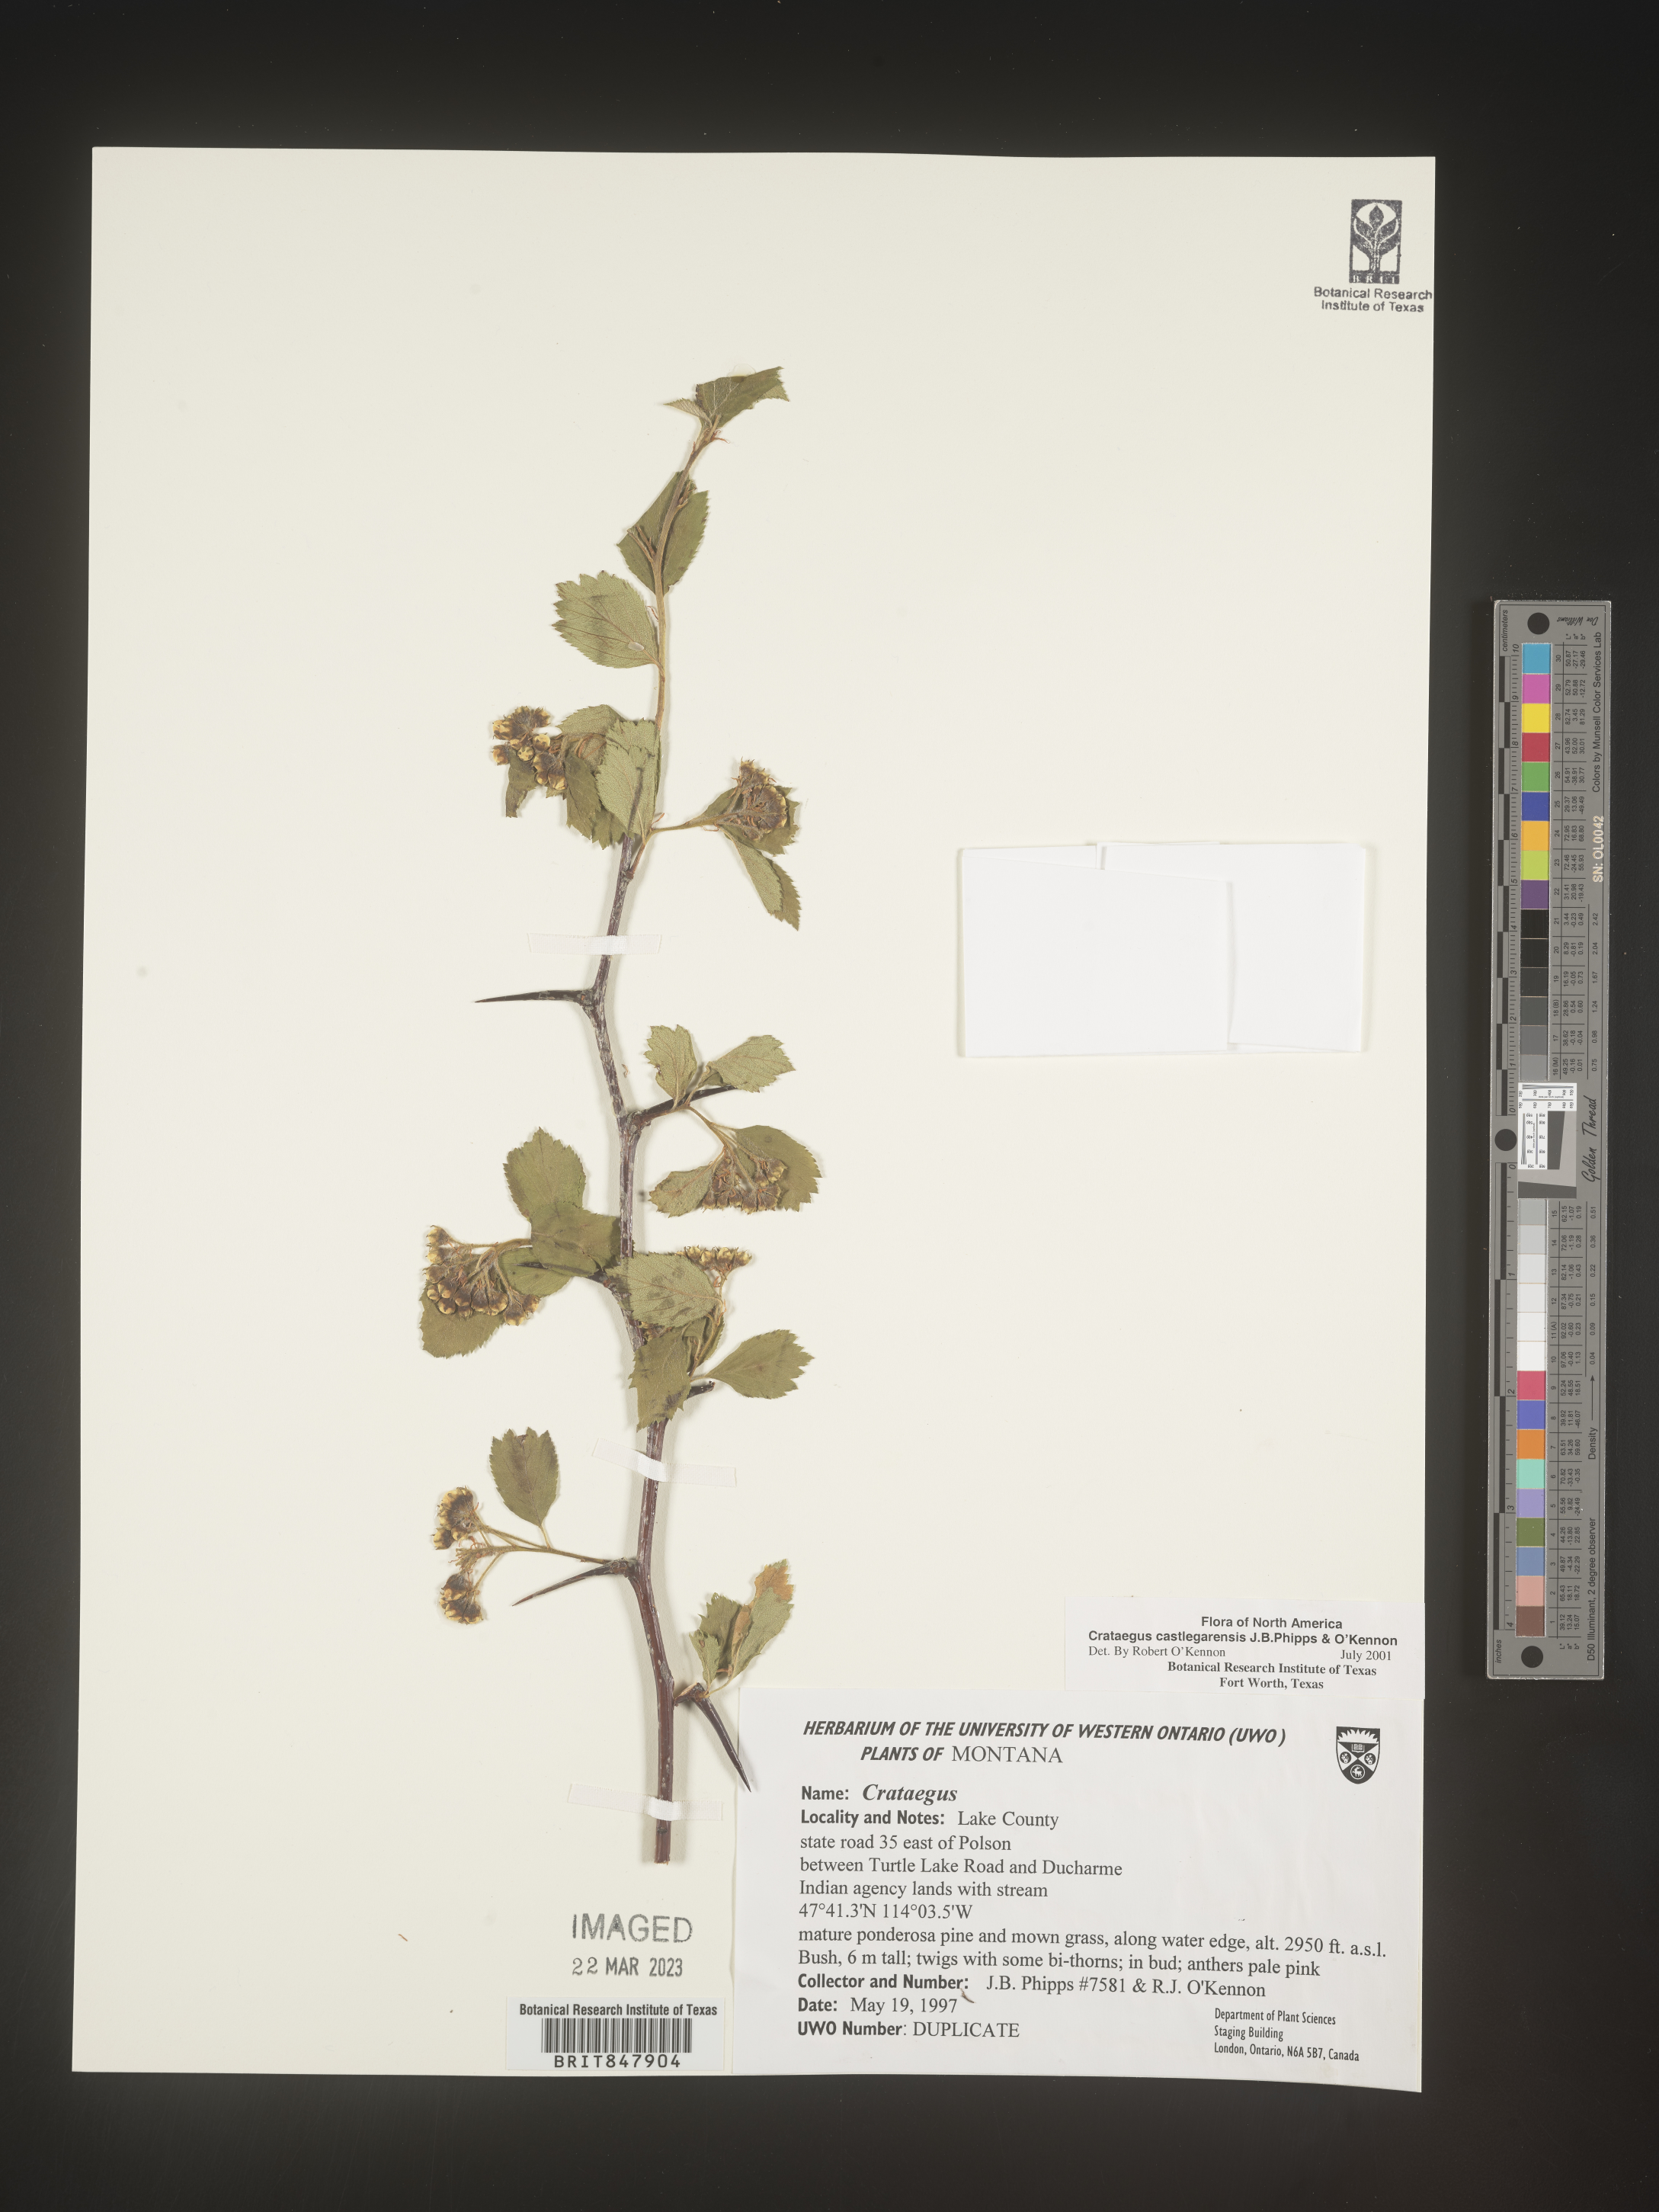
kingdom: Plantae
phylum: Tracheophyta
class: Magnoliopsida
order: Rosales
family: Rosaceae
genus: Crataegus
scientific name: Crataegus castlegarensis
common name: Castlegar hawthorn
